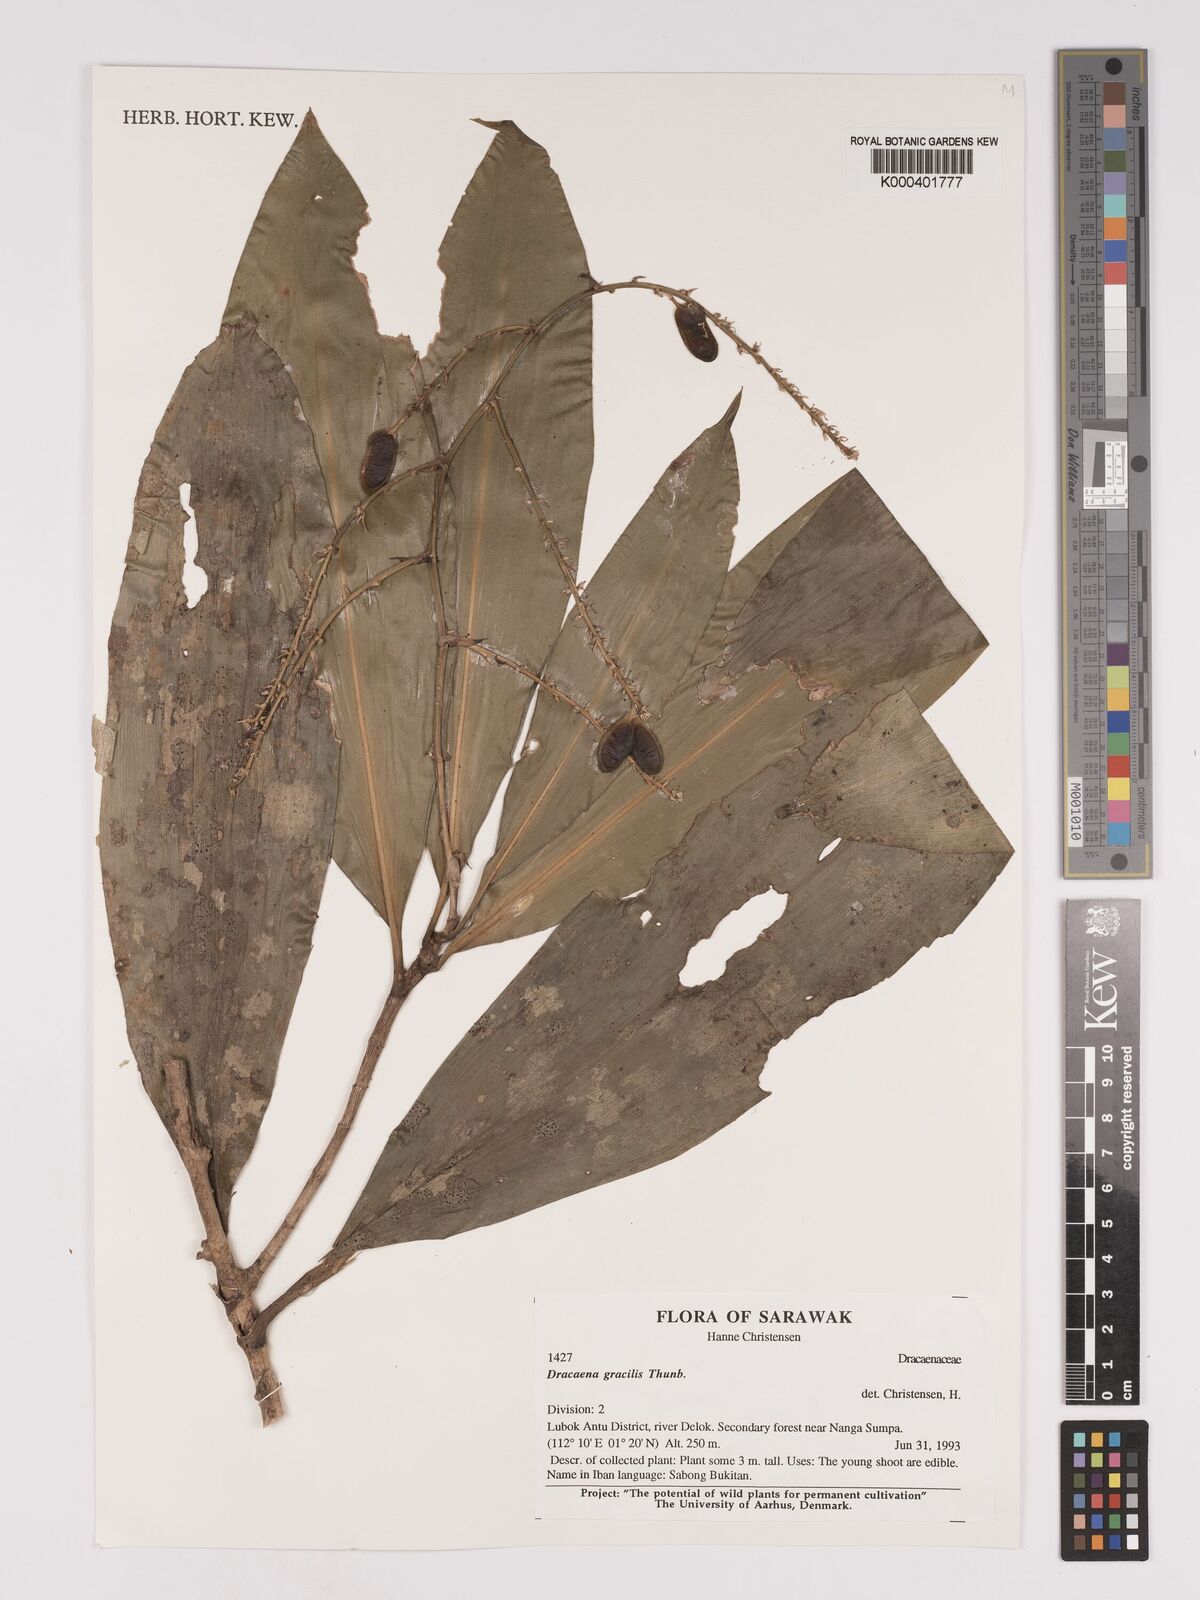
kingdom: Plantae
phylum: Tracheophyta
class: Liliopsida
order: Asparagales
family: Asparagaceae
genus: Dracaena
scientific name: Dracaena
